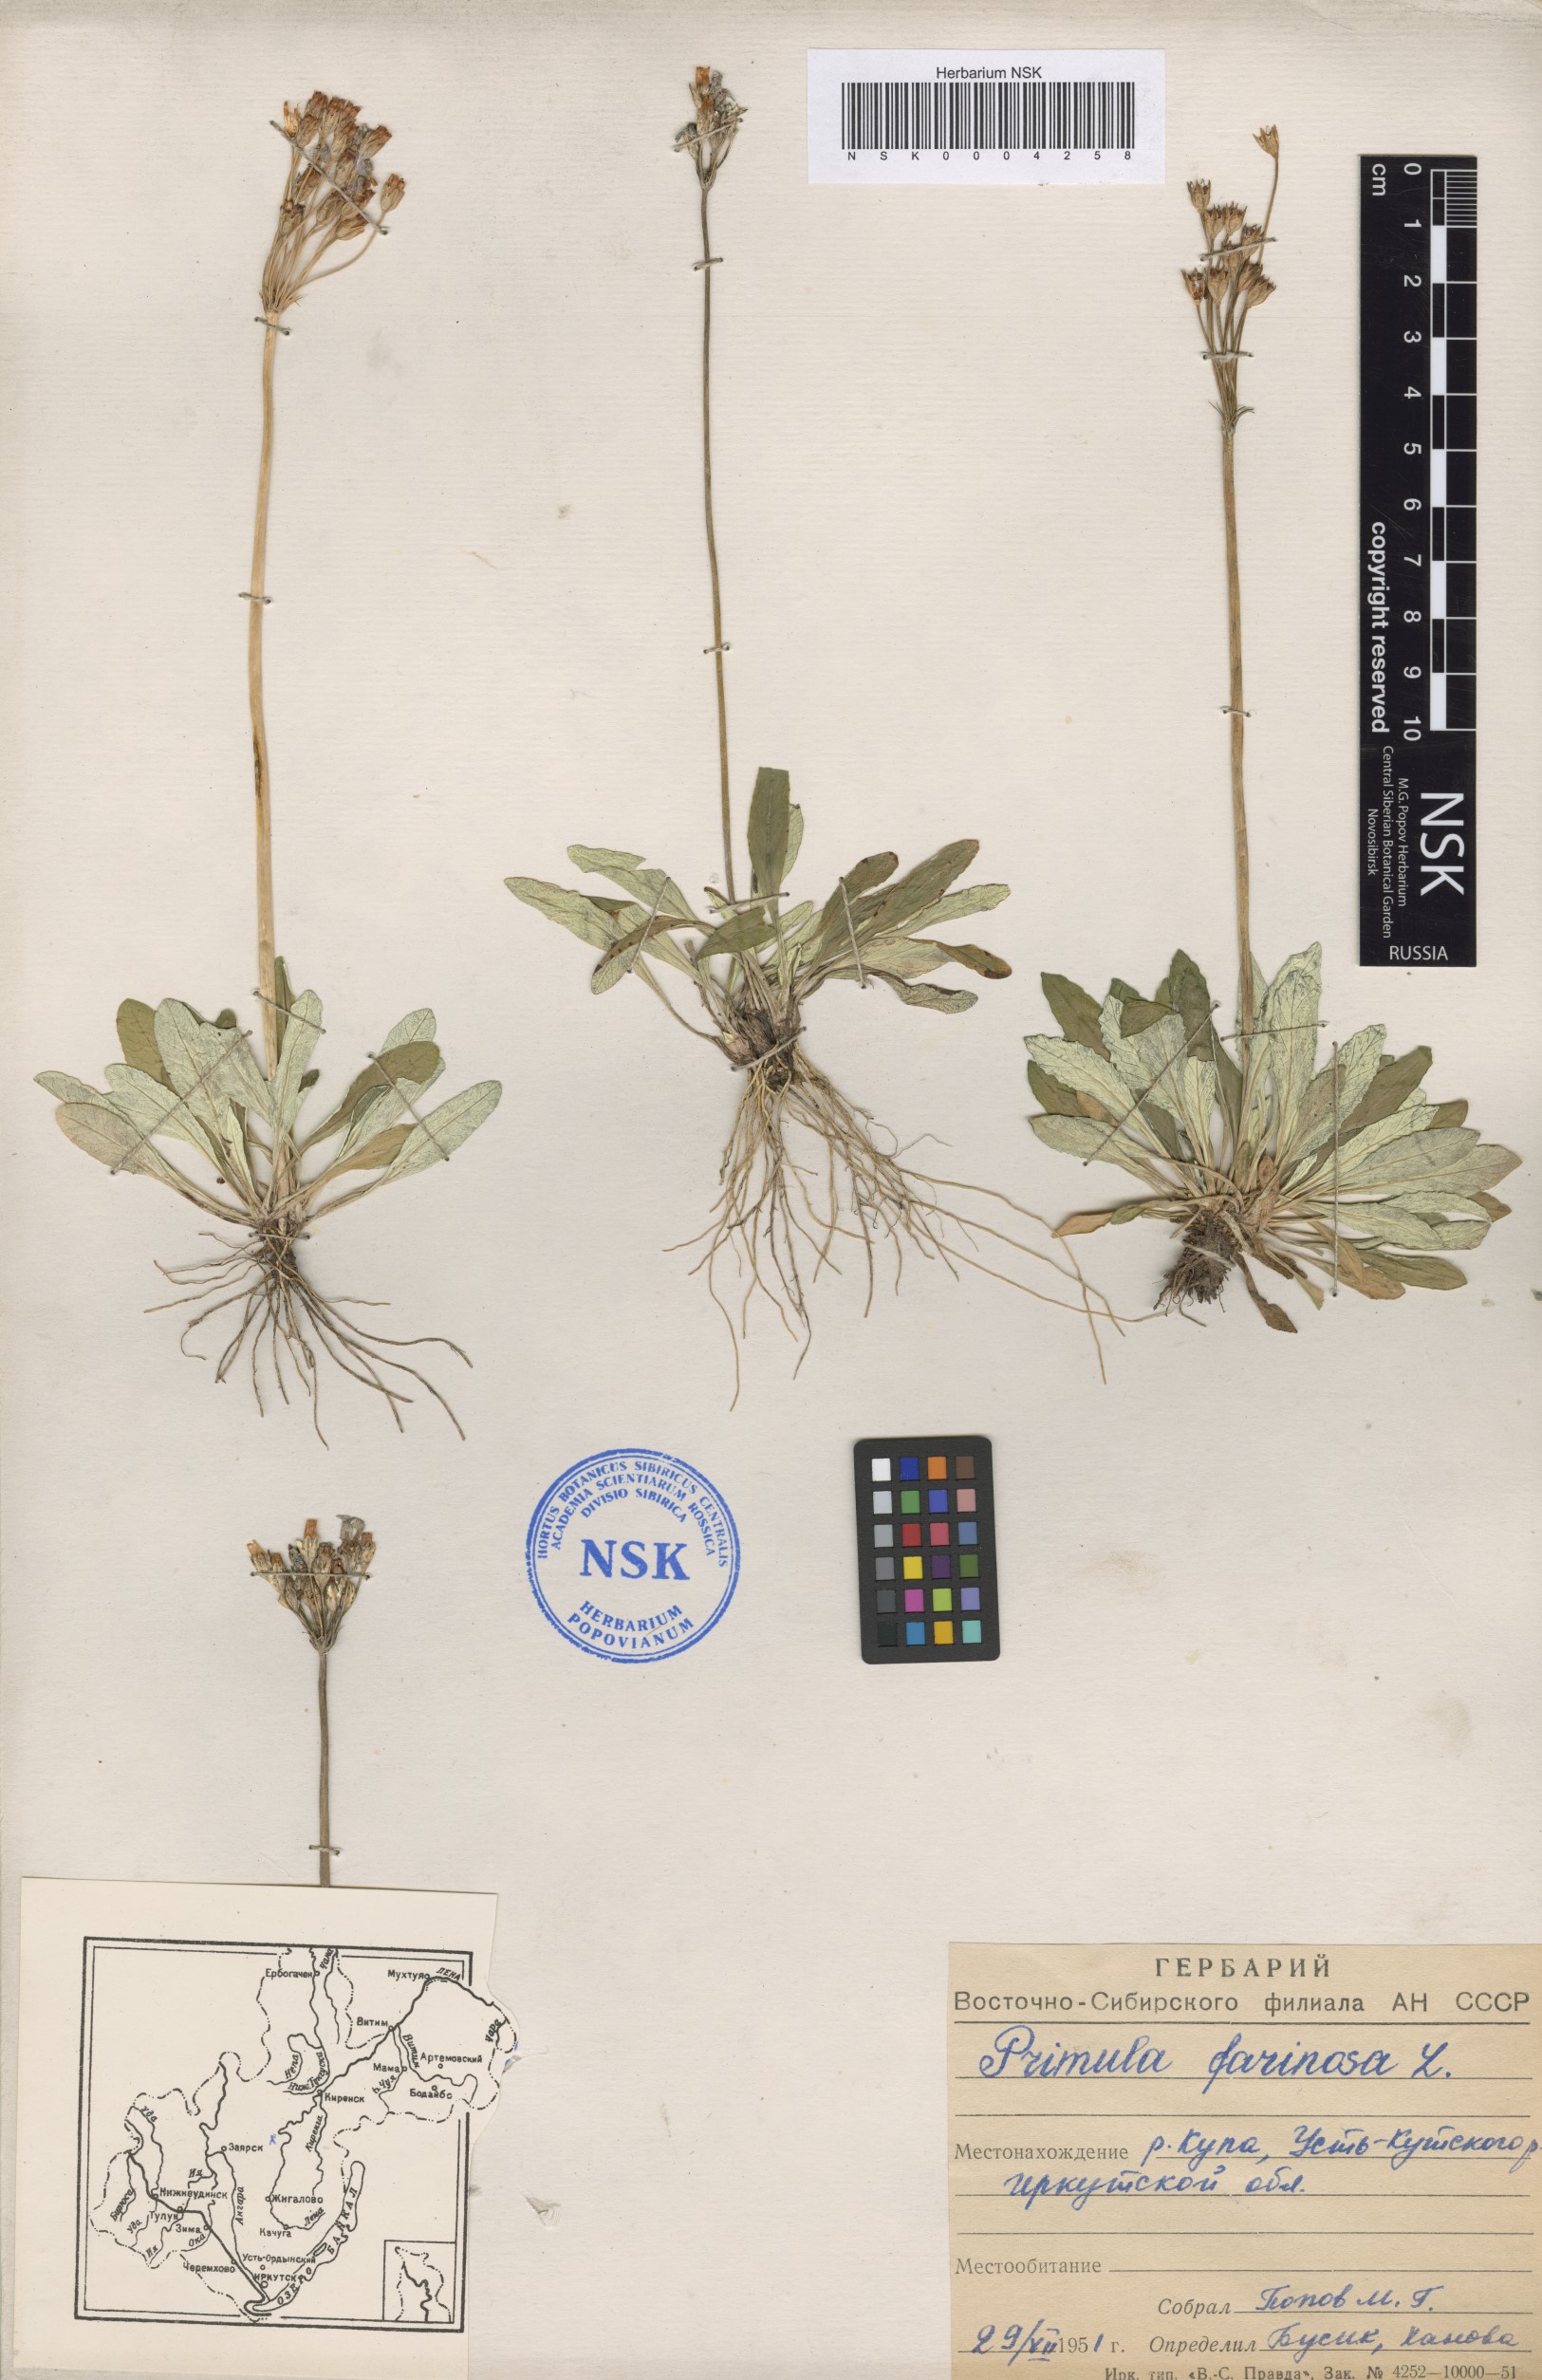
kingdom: Plantae
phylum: Tracheophyta
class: Magnoliopsida
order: Ericales
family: Primulaceae
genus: Primula
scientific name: Primula farinosa
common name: Bird's-eye primrose
